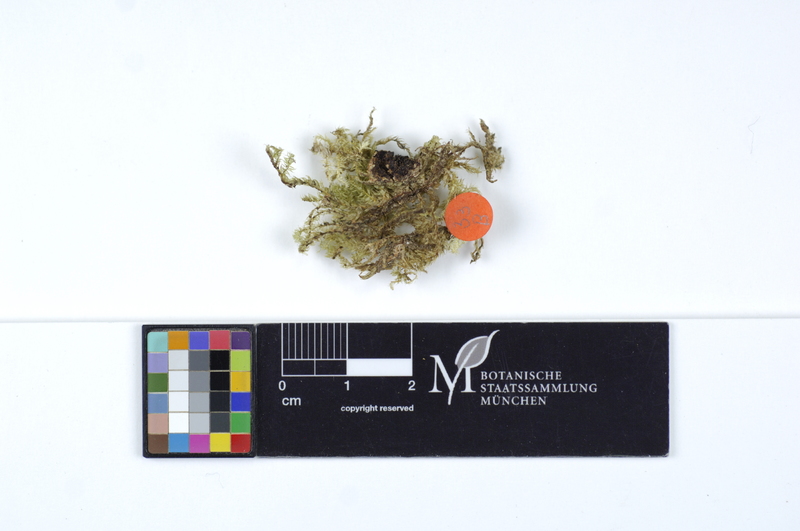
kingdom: Fungi
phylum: Basidiomycota
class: Agaricomycetes
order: Polyporales
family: Irpicaceae
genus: Ceriporia
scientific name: Ceriporia purpurea
